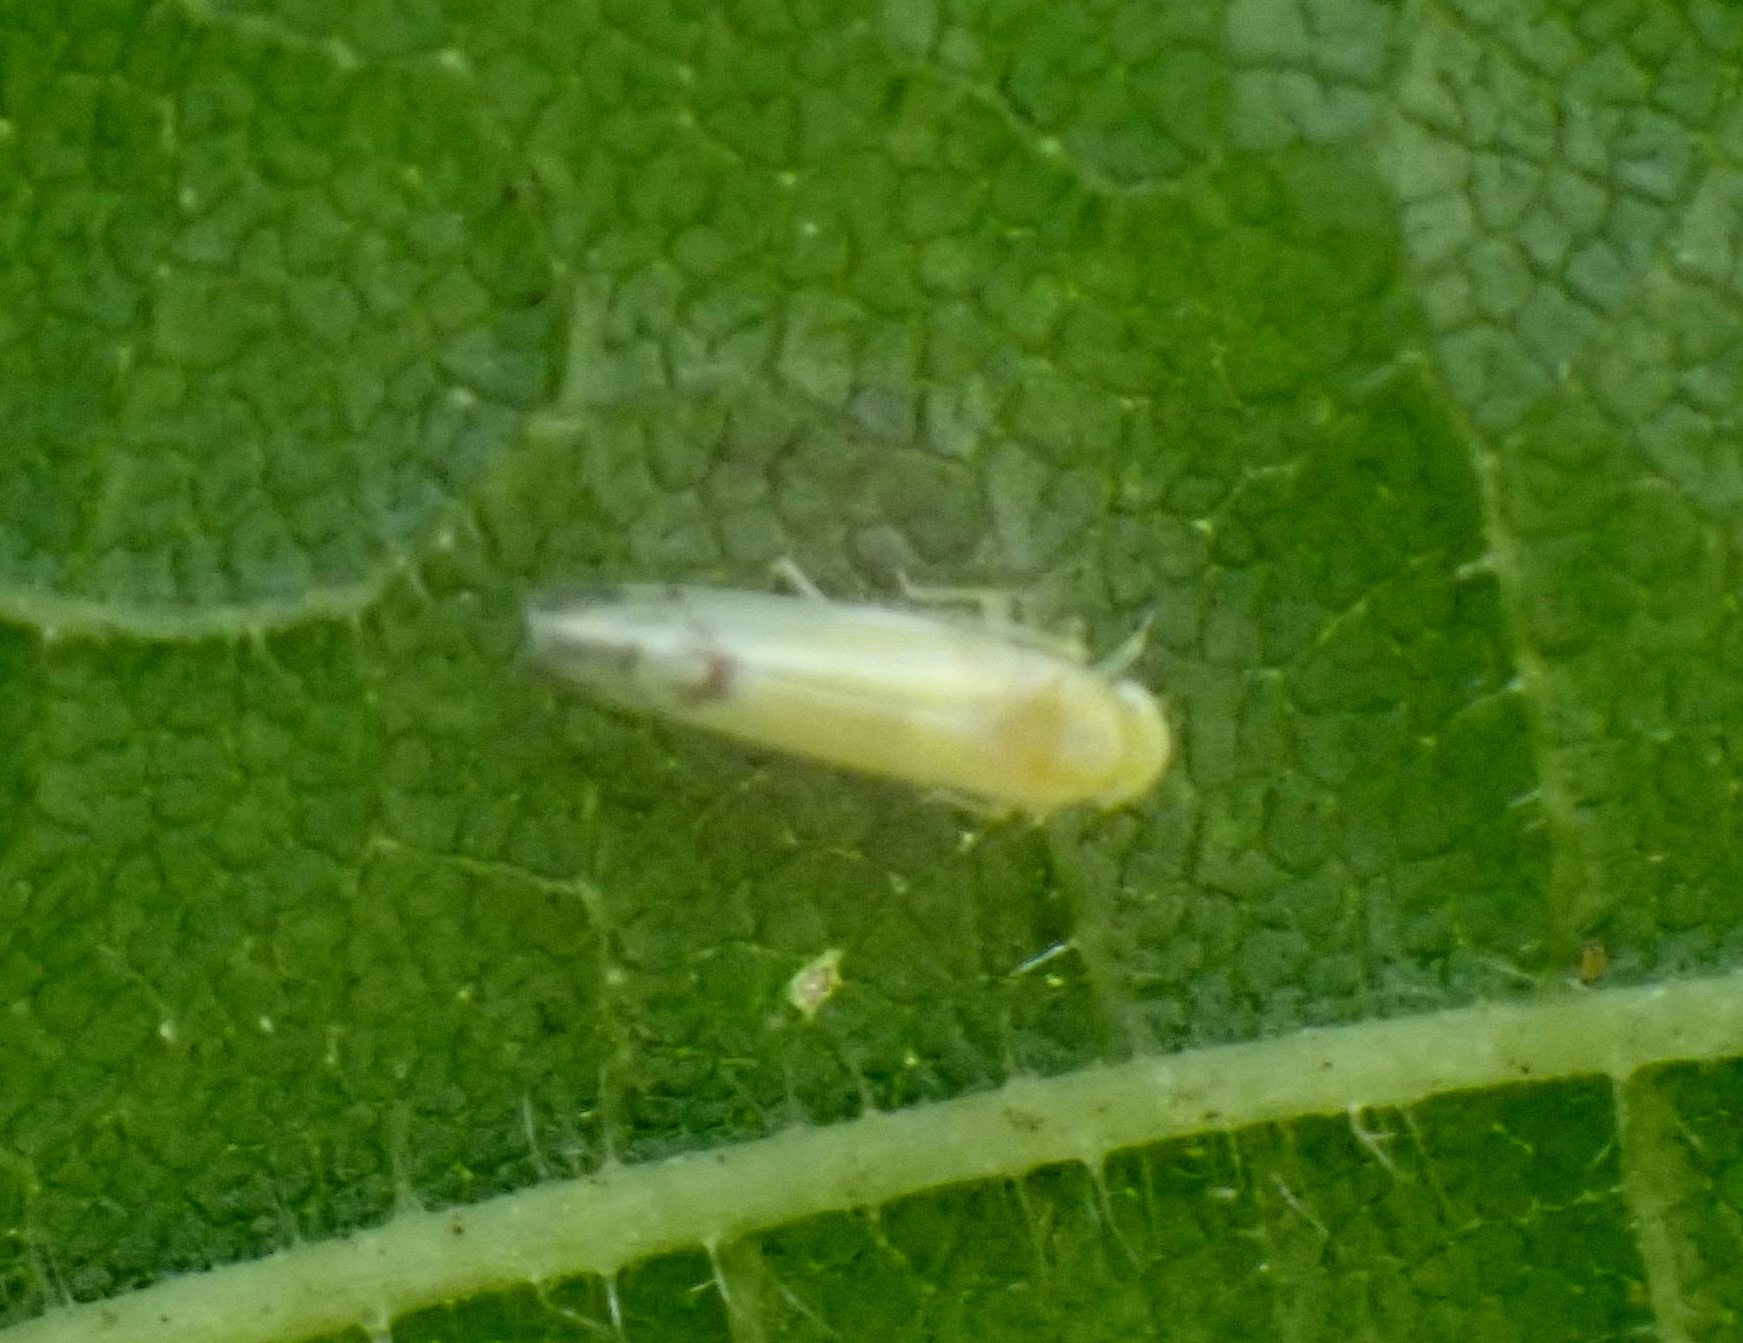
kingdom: Animalia
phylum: Arthropoda
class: Insecta
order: Hemiptera
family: Cicadellidae
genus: Ribautiana
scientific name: Ribautiana ulmi
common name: Elmecikade
